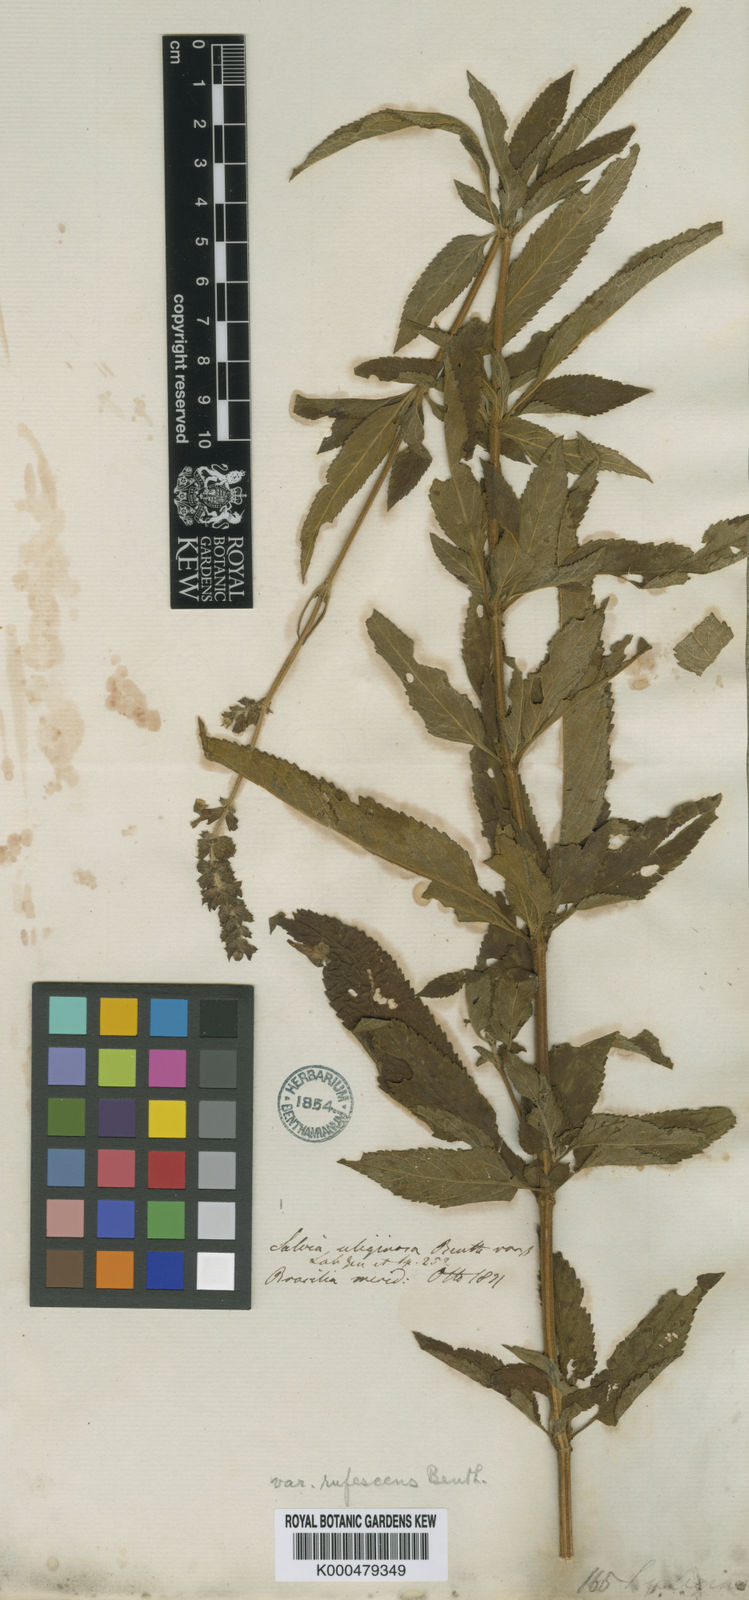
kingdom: Plantae
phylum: Tracheophyta
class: Magnoliopsida
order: Lamiales
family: Lamiaceae
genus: Salvia
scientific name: Salvia uliginosa
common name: Bog sage
